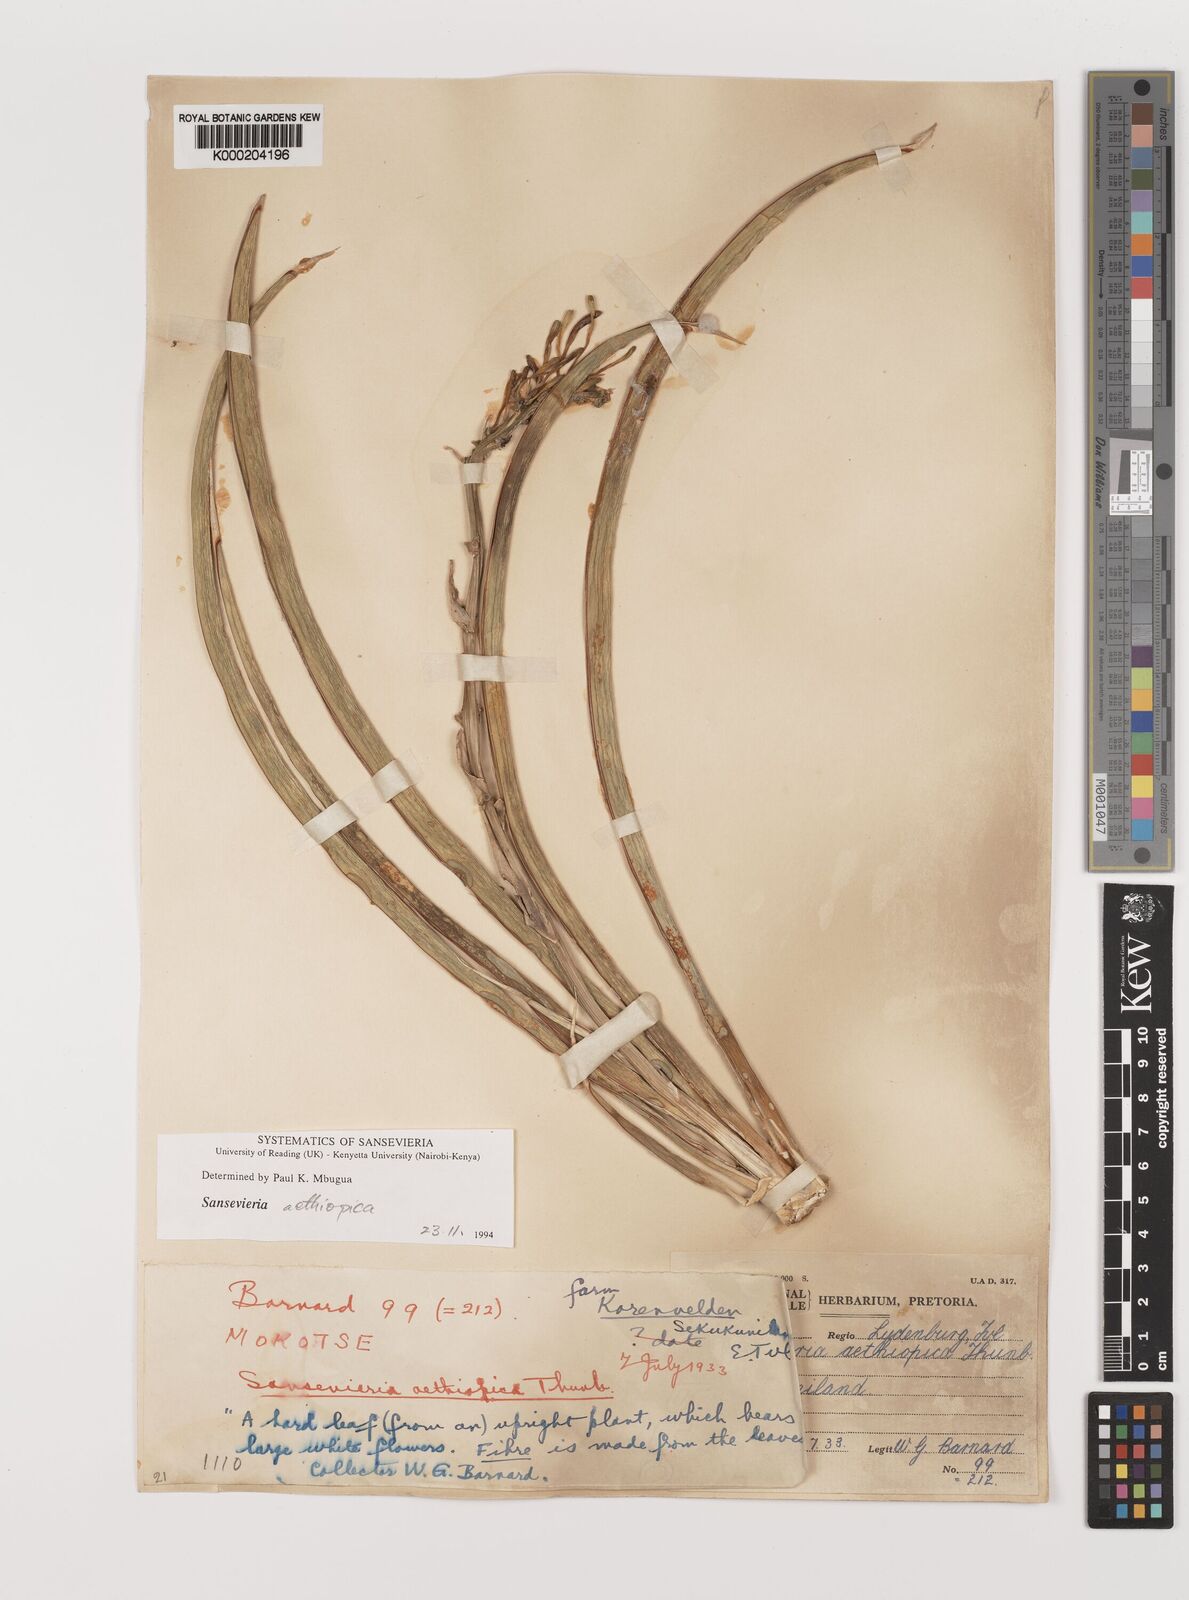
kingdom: Plantae
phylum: Tracheophyta
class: Liliopsida
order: Asparagales
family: Asparagaceae
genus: Dracaena
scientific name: Dracaena aethiopica
